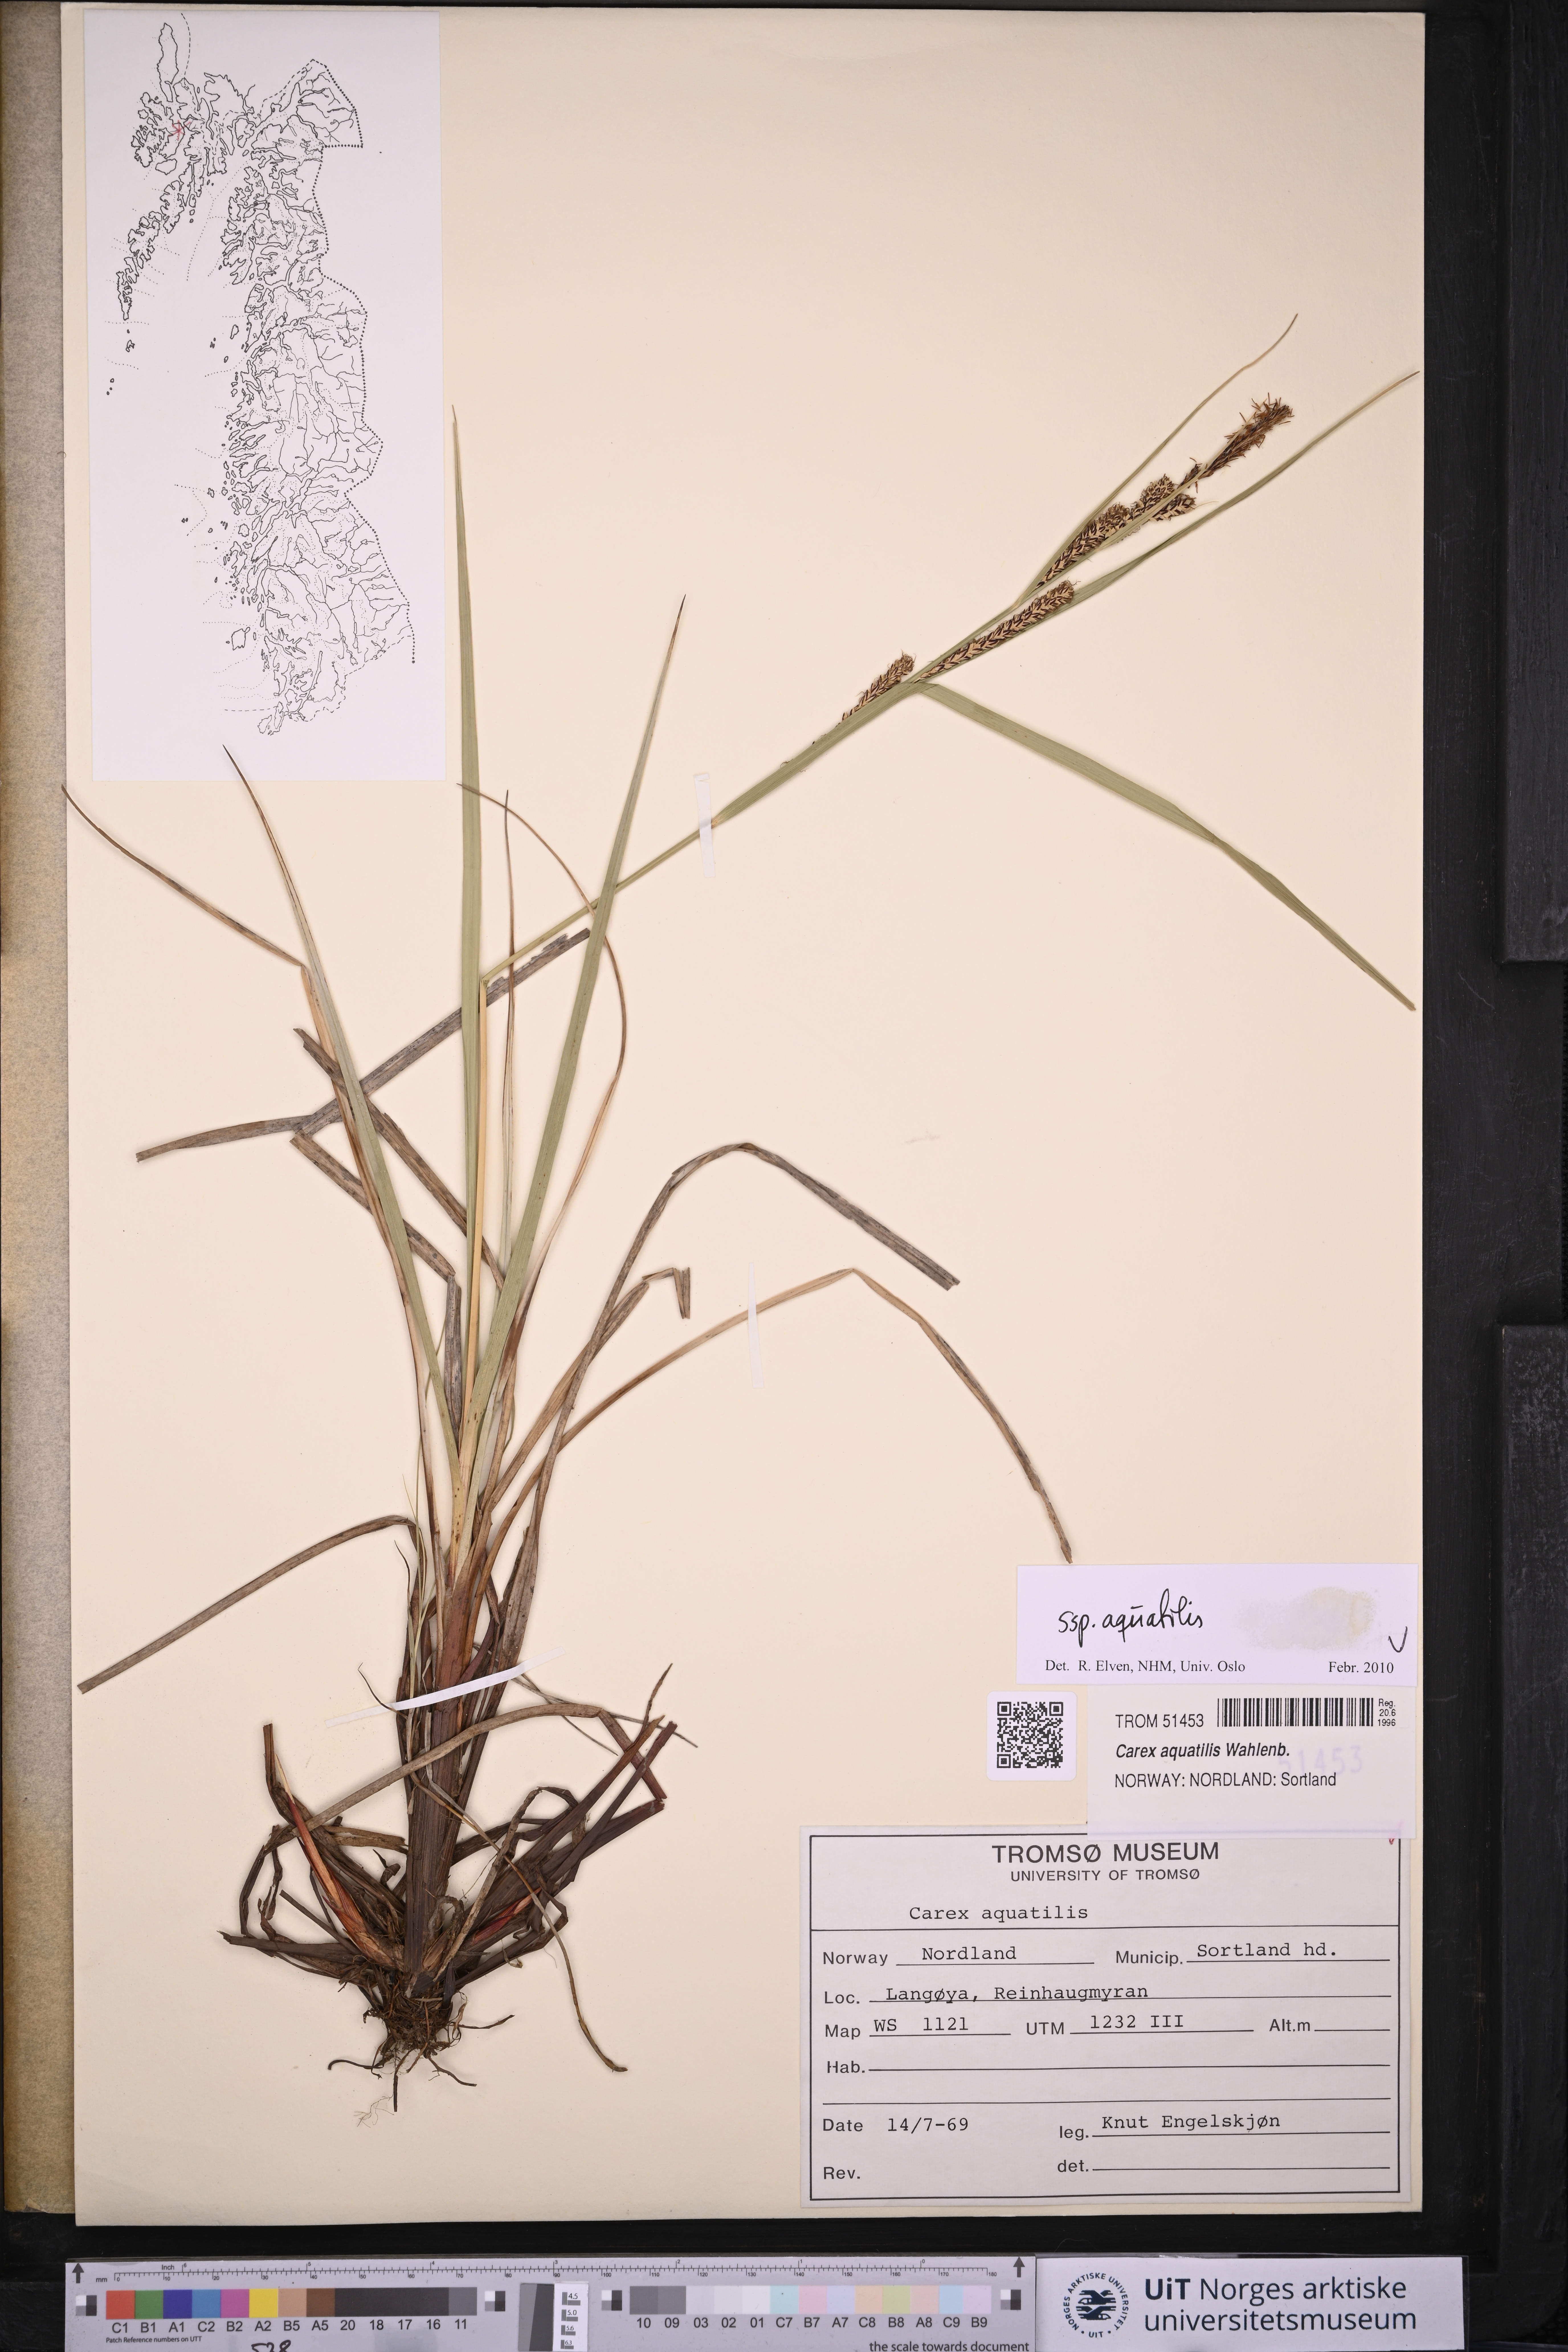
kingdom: Plantae
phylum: Tracheophyta
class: Liliopsida
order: Poales
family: Cyperaceae
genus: Carex
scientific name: Carex aquatilis
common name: Water sedge
